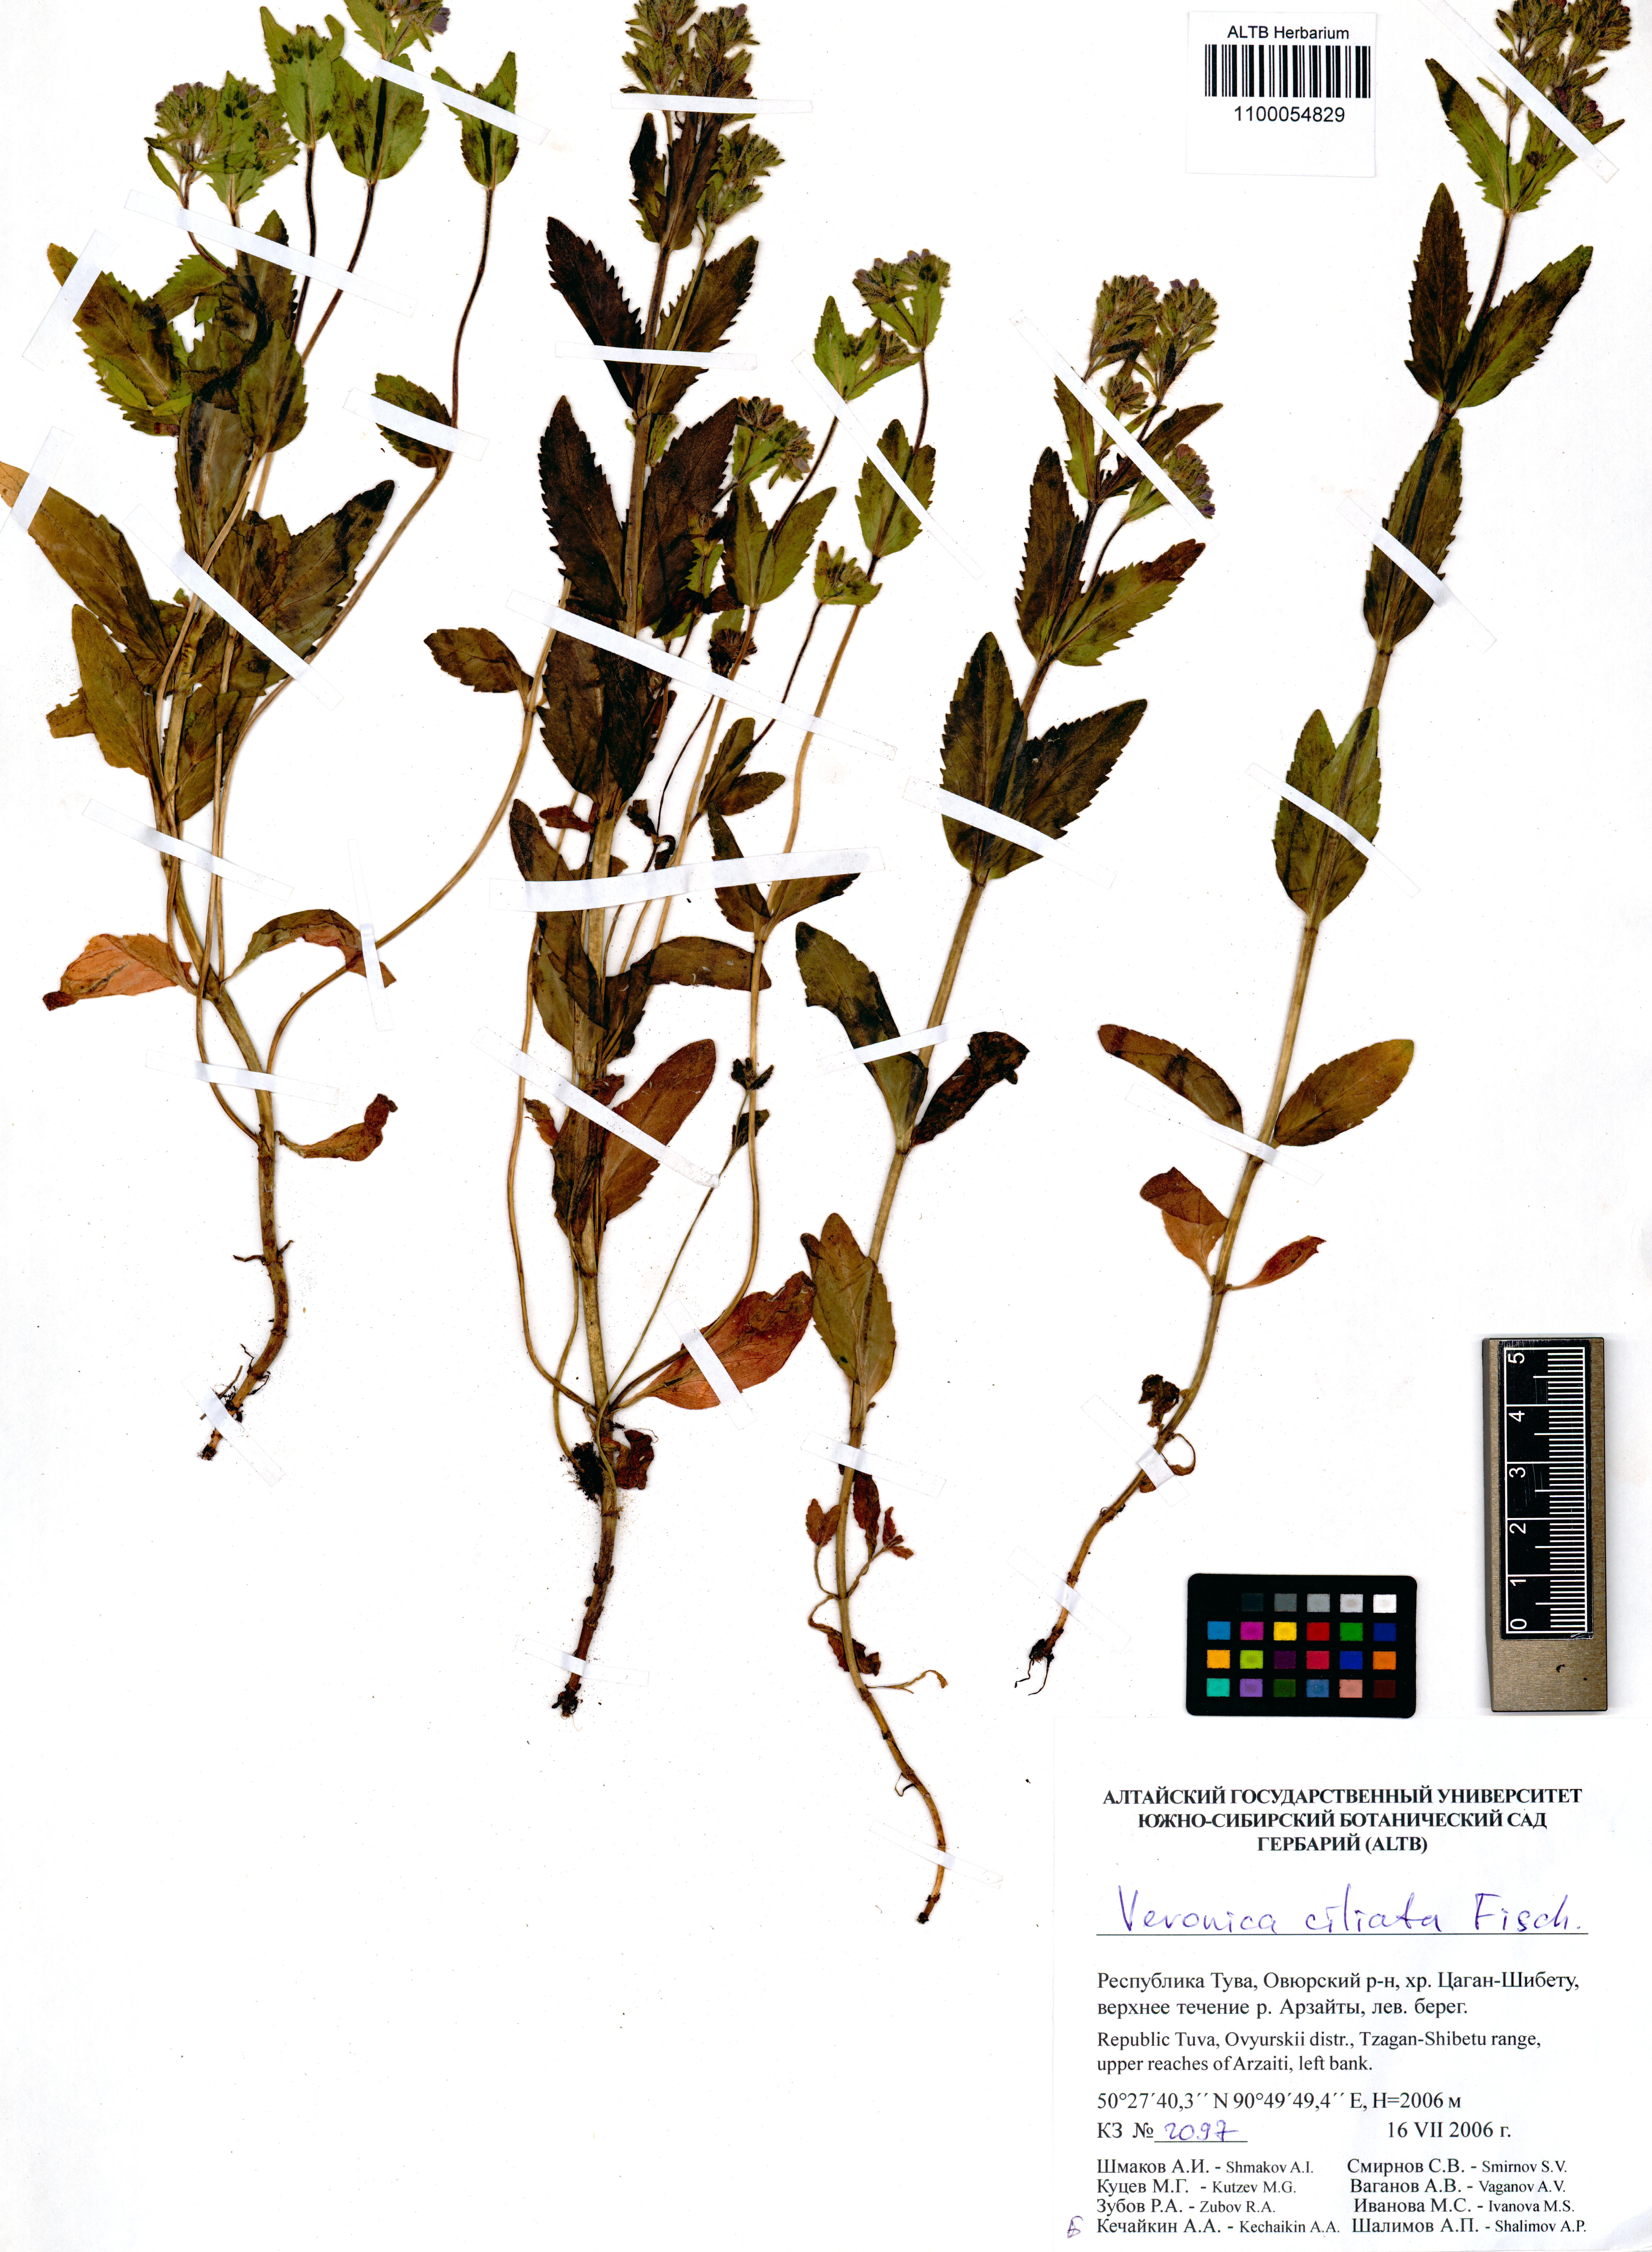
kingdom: Plantae
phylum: Tracheophyta
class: Magnoliopsida
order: Lamiales
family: Plantaginaceae
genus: Veronica
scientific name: Veronica ciliata
